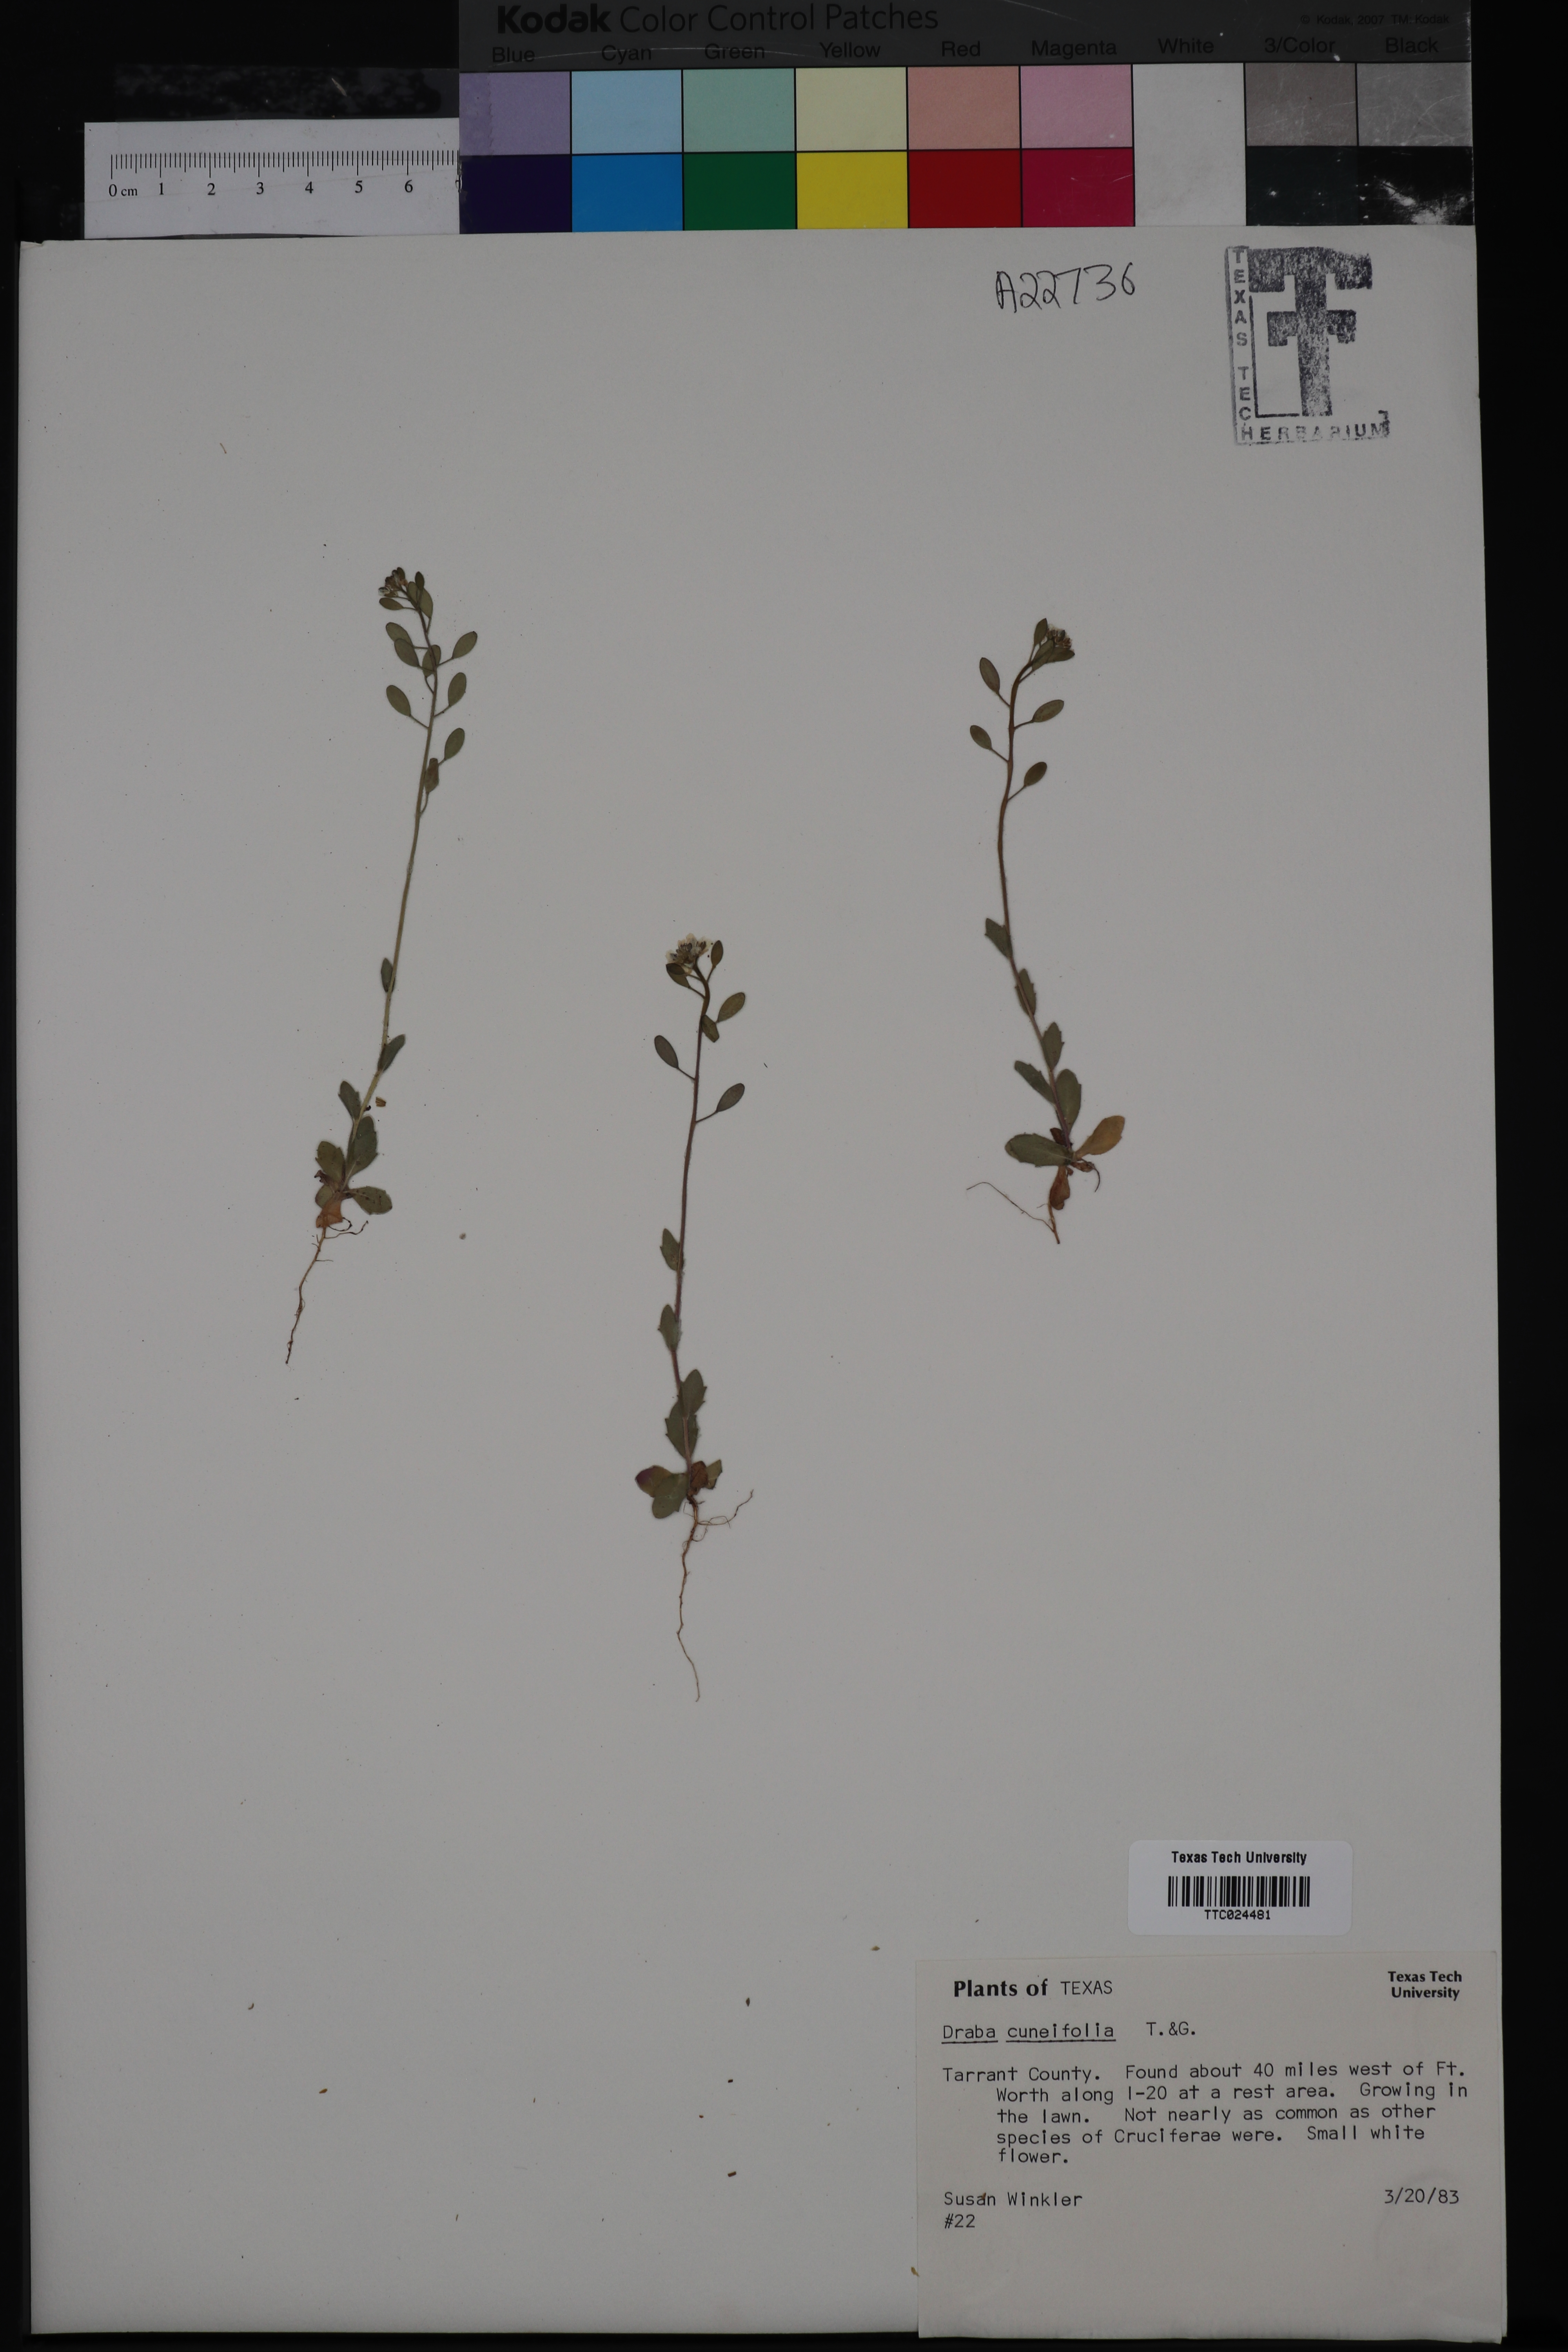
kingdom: Plantae
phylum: Tracheophyta
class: Magnoliopsida
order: Brassicales
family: Brassicaceae
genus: Tomostima
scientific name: Tomostima cuneifolia
